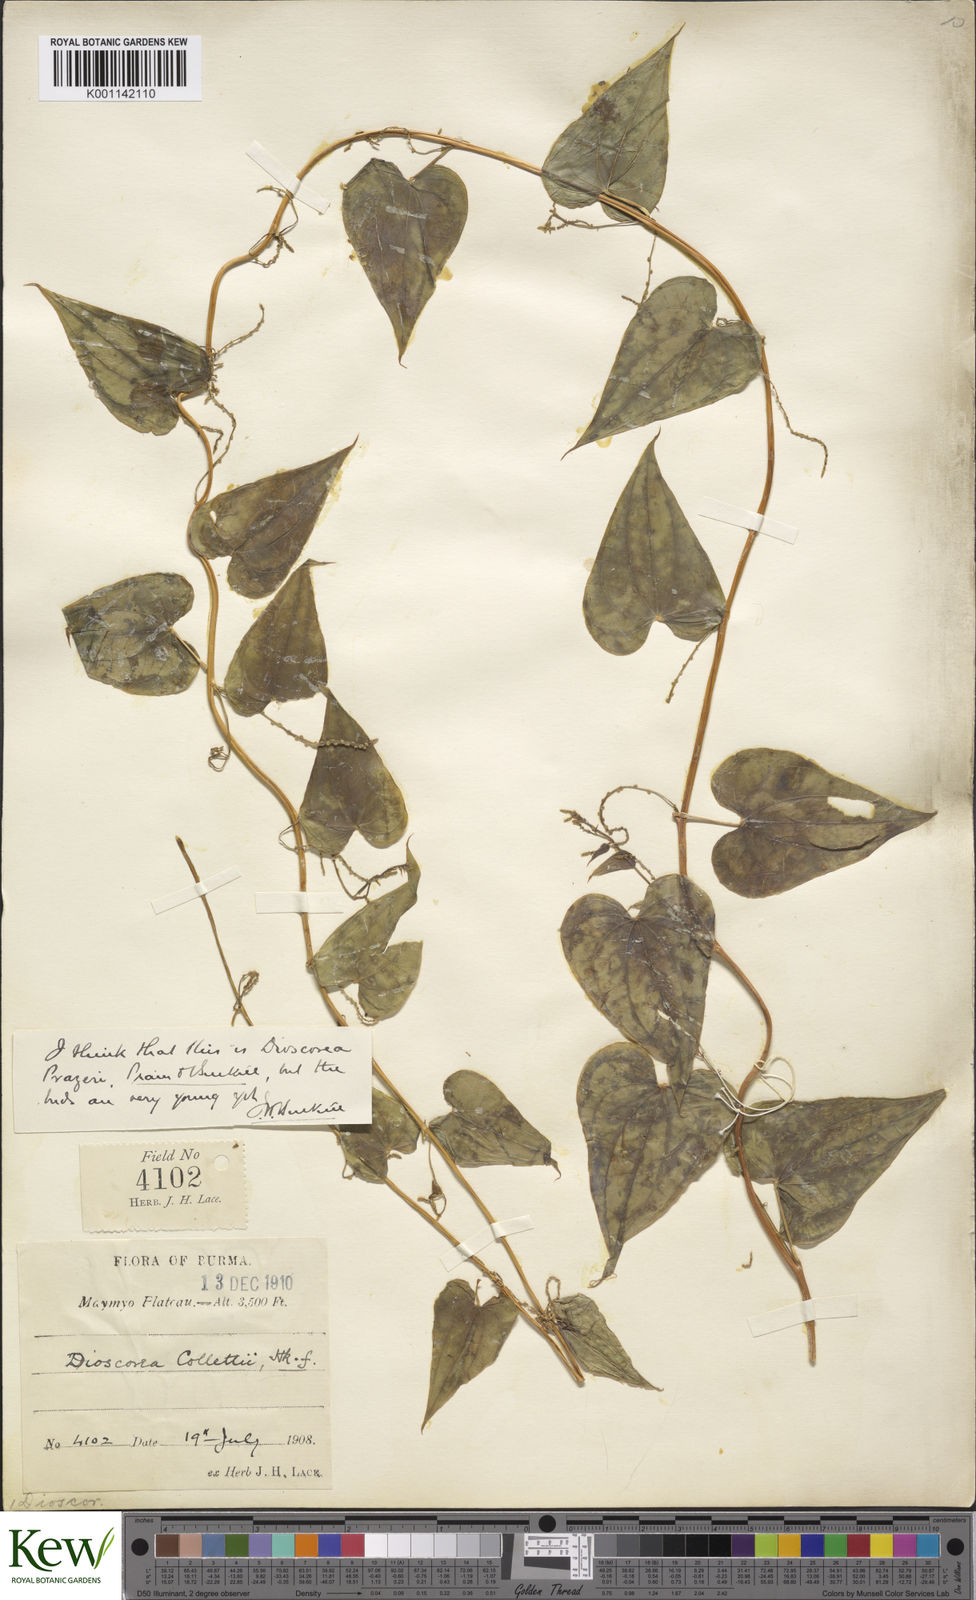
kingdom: Plantae
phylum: Tracheophyta
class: Liliopsida
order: Dioscoreales
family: Dioscoreaceae
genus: Dioscorea
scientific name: Dioscorea prazeri
